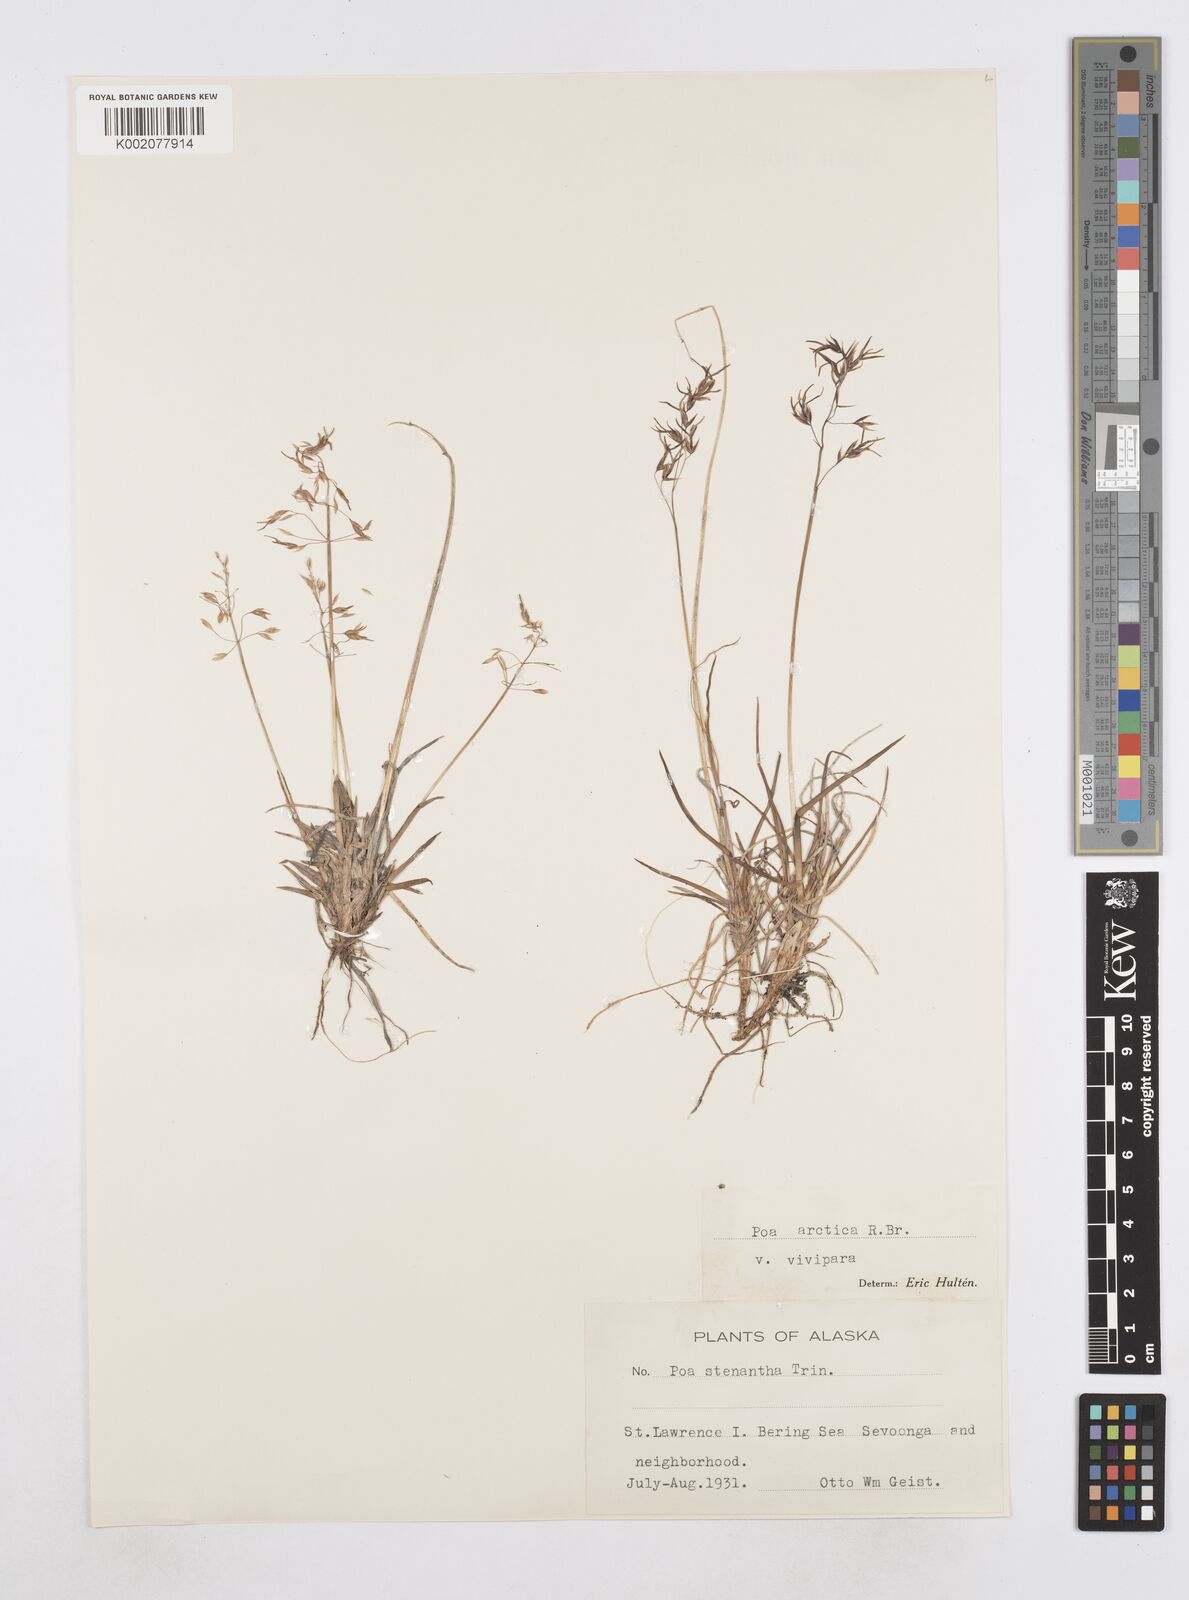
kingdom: Plantae
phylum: Tracheophyta
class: Liliopsida
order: Poales
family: Poaceae
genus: Poa
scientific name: Poa stenantha
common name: Narrow-flowered bluegrass
